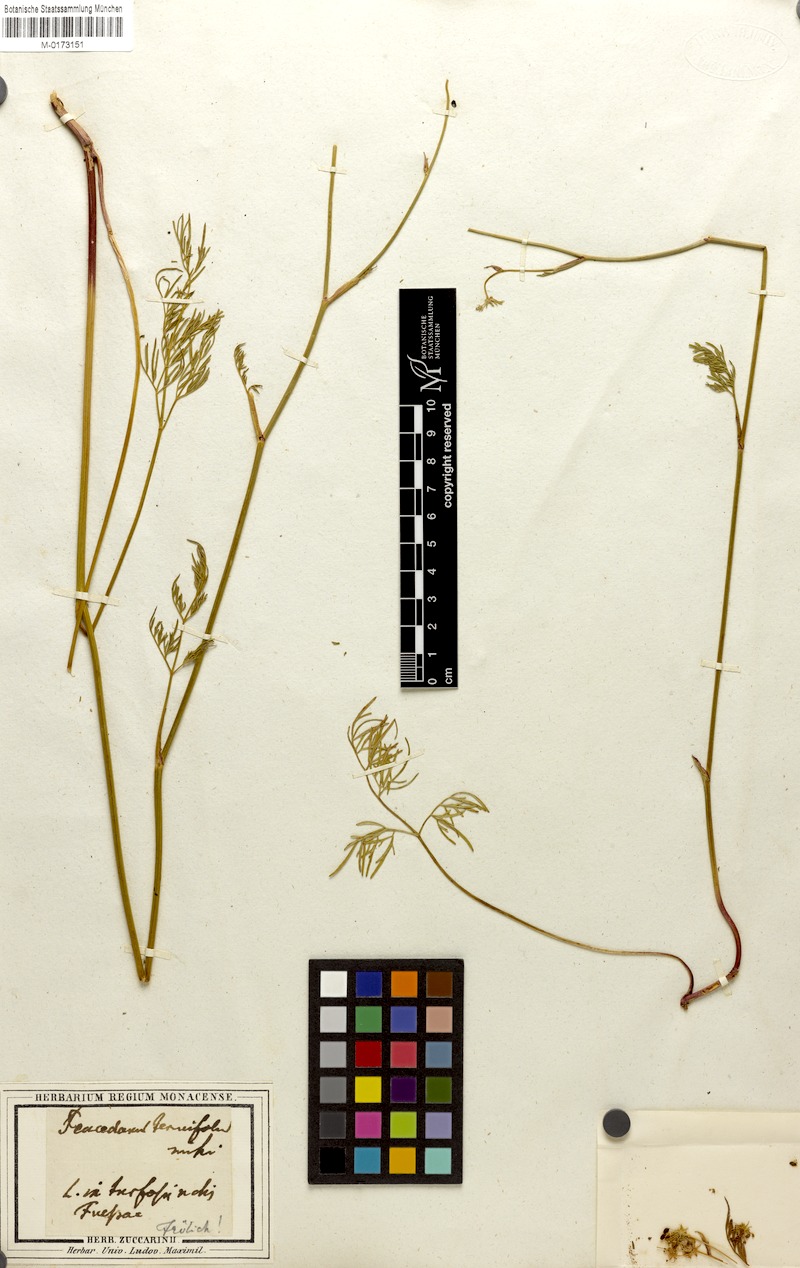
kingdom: Plantae
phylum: Tracheophyta
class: Magnoliopsida
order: Apiales
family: Apiaceae
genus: Thysselinum
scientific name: Thysselinum palustre
